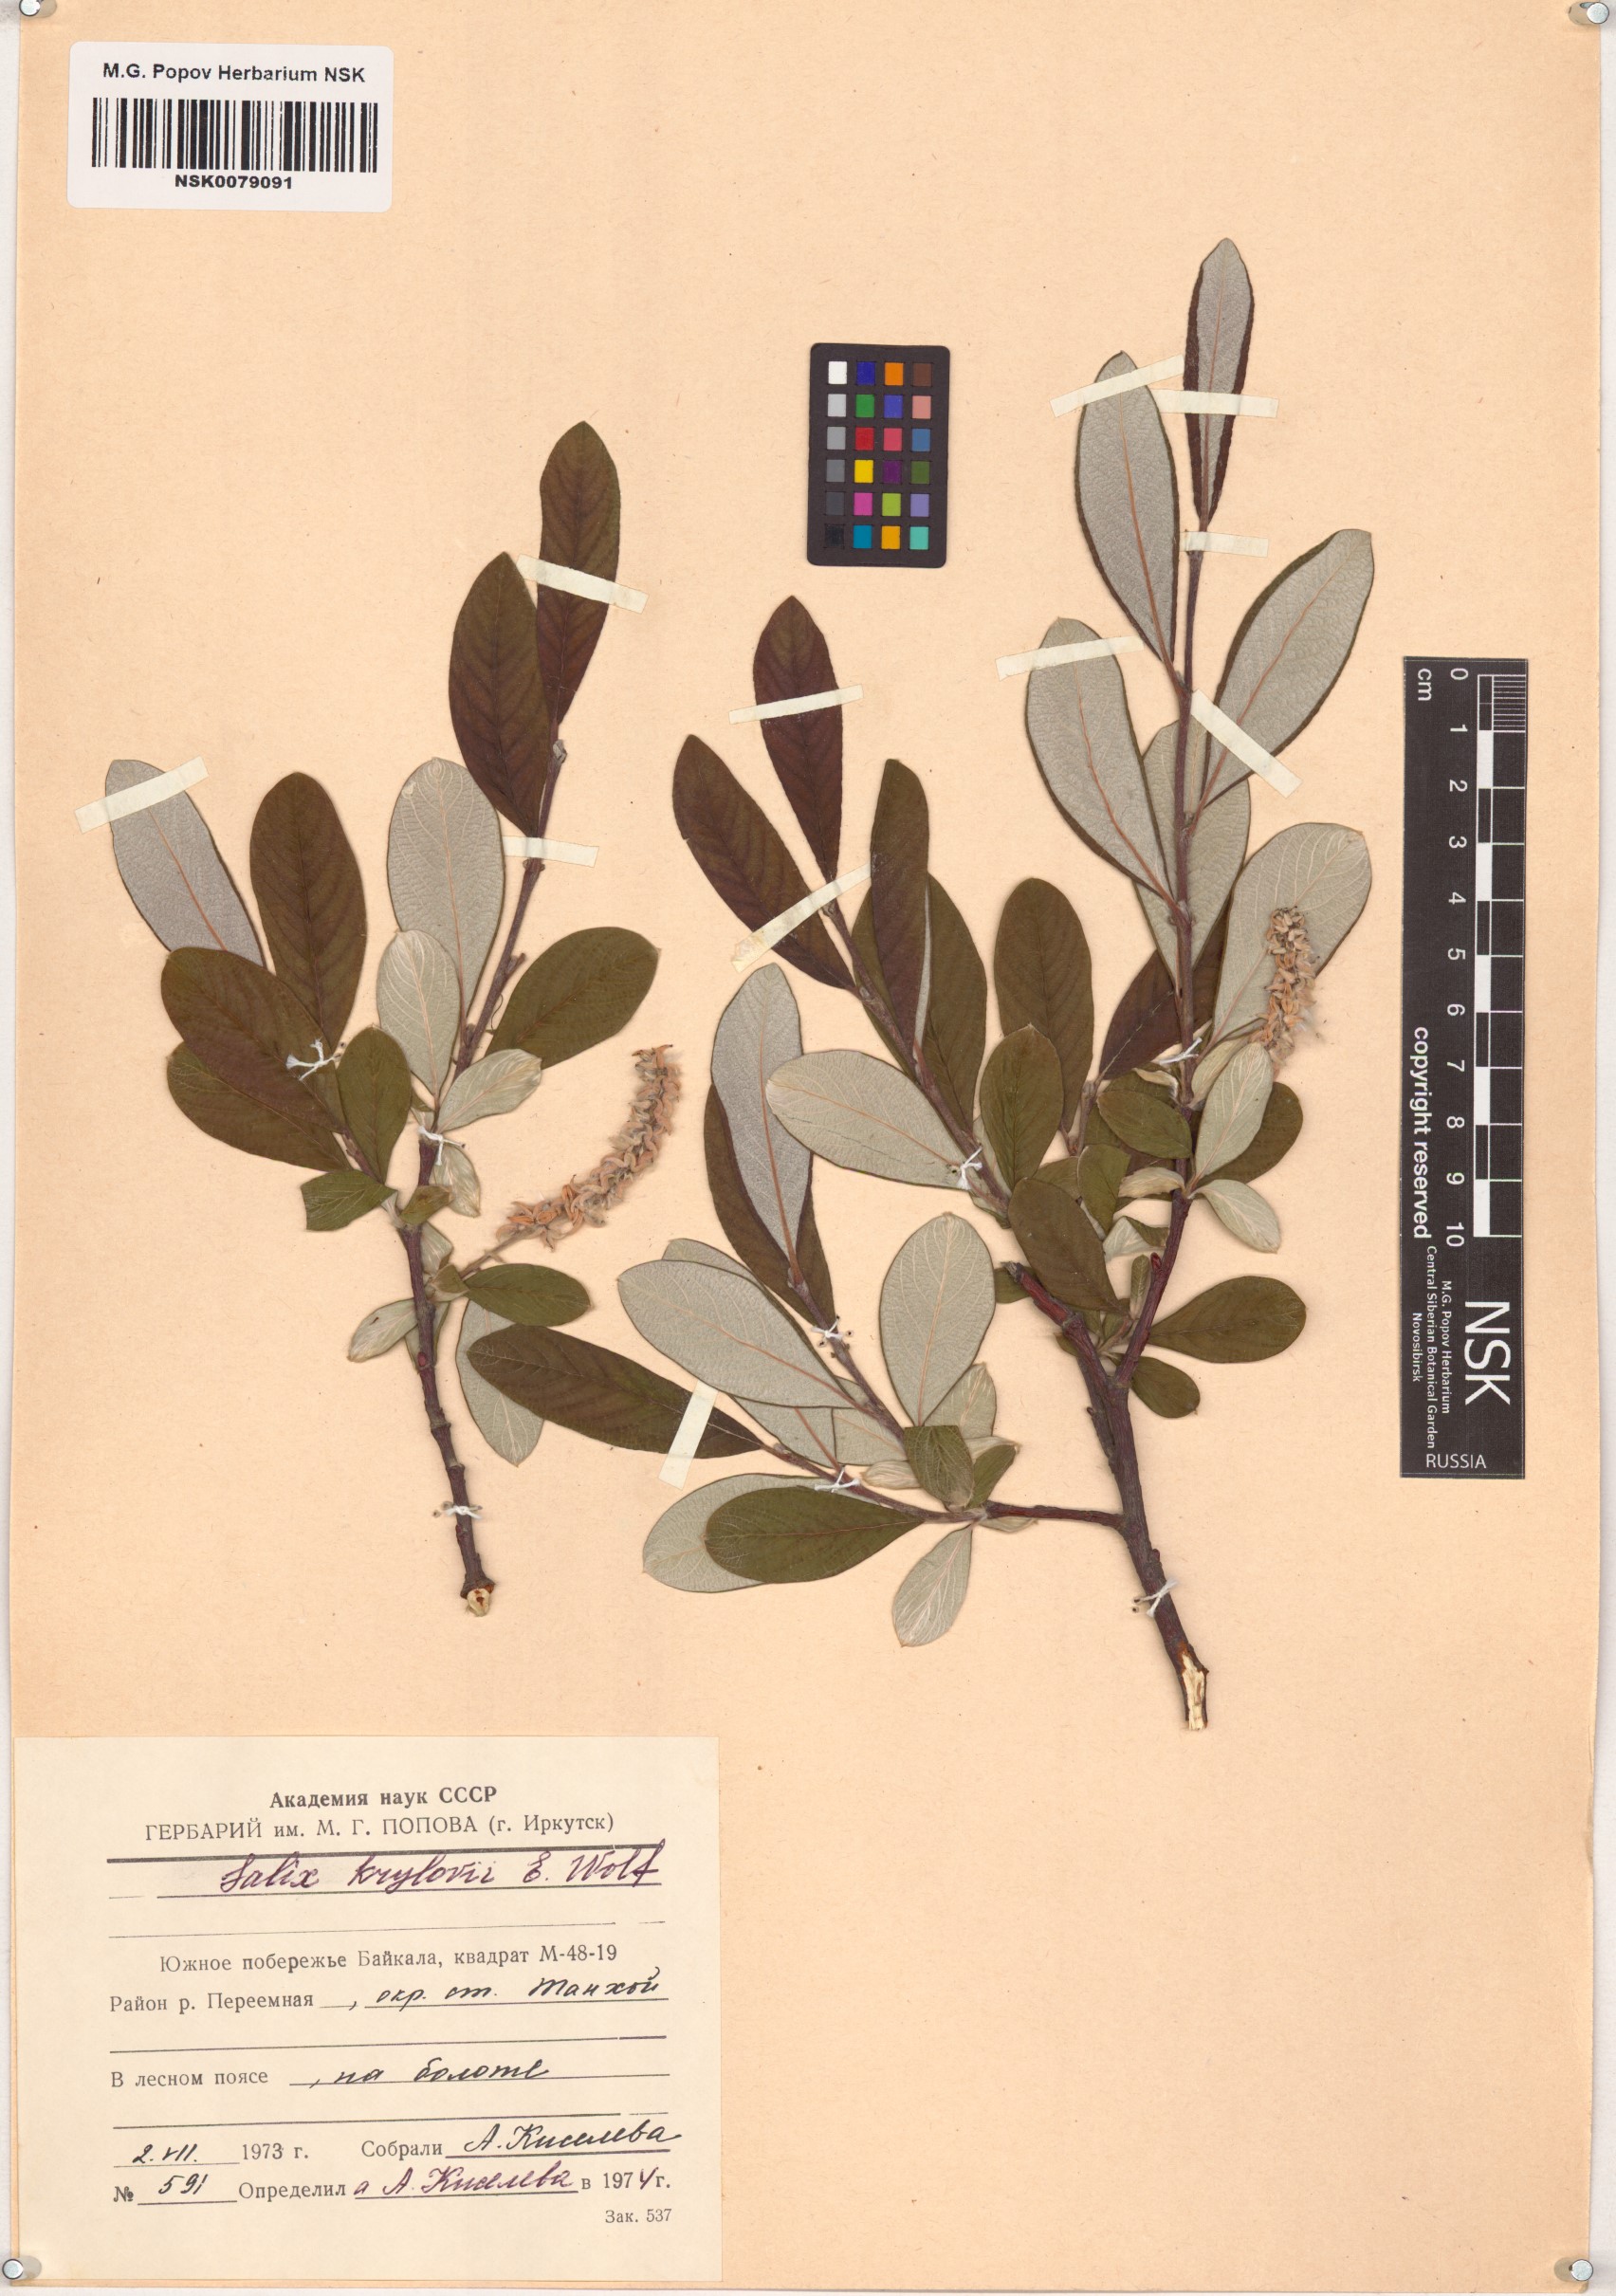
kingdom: Plantae
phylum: Tracheophyta
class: Magnoliopsida
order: Malpighiales
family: Salicaceae
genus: Salix
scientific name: Salix krylovii
